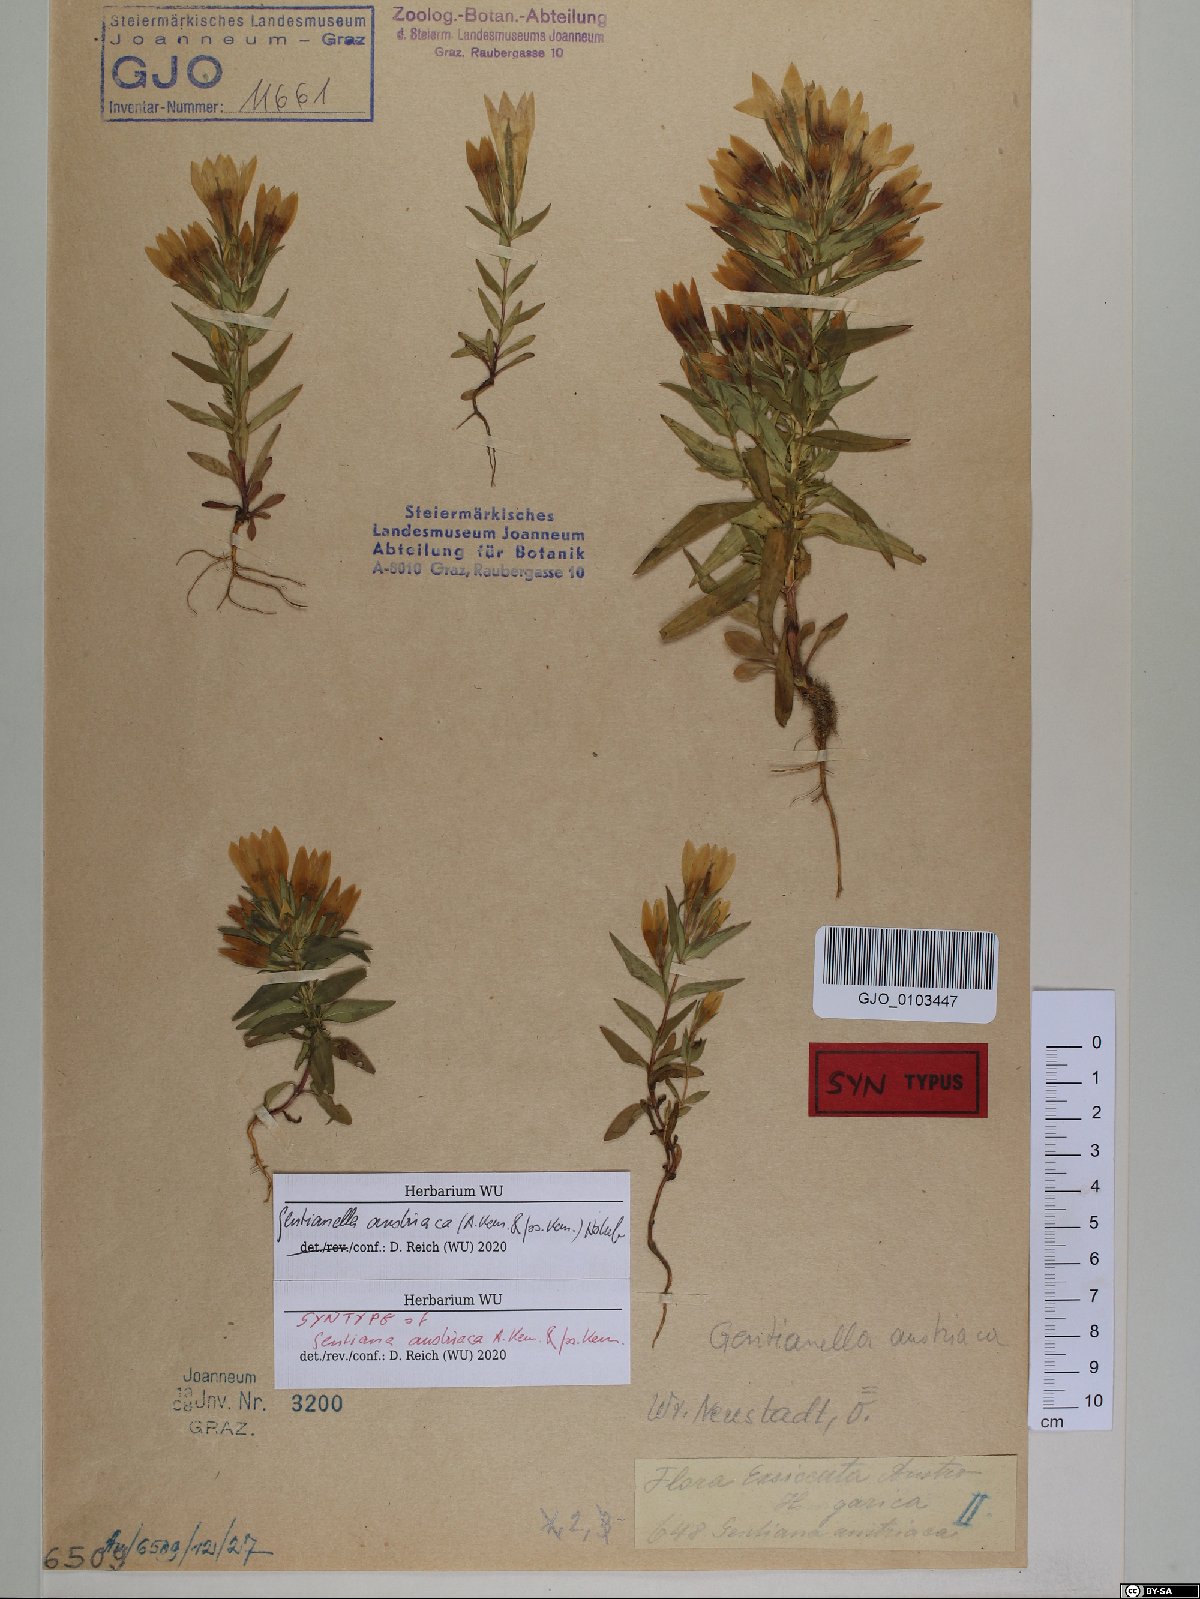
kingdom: Plantae
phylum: Tracheophyta
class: Magnoliopsida
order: Gentianales
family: Gentianaceae
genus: Gentianella
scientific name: Gentianella austriaca
